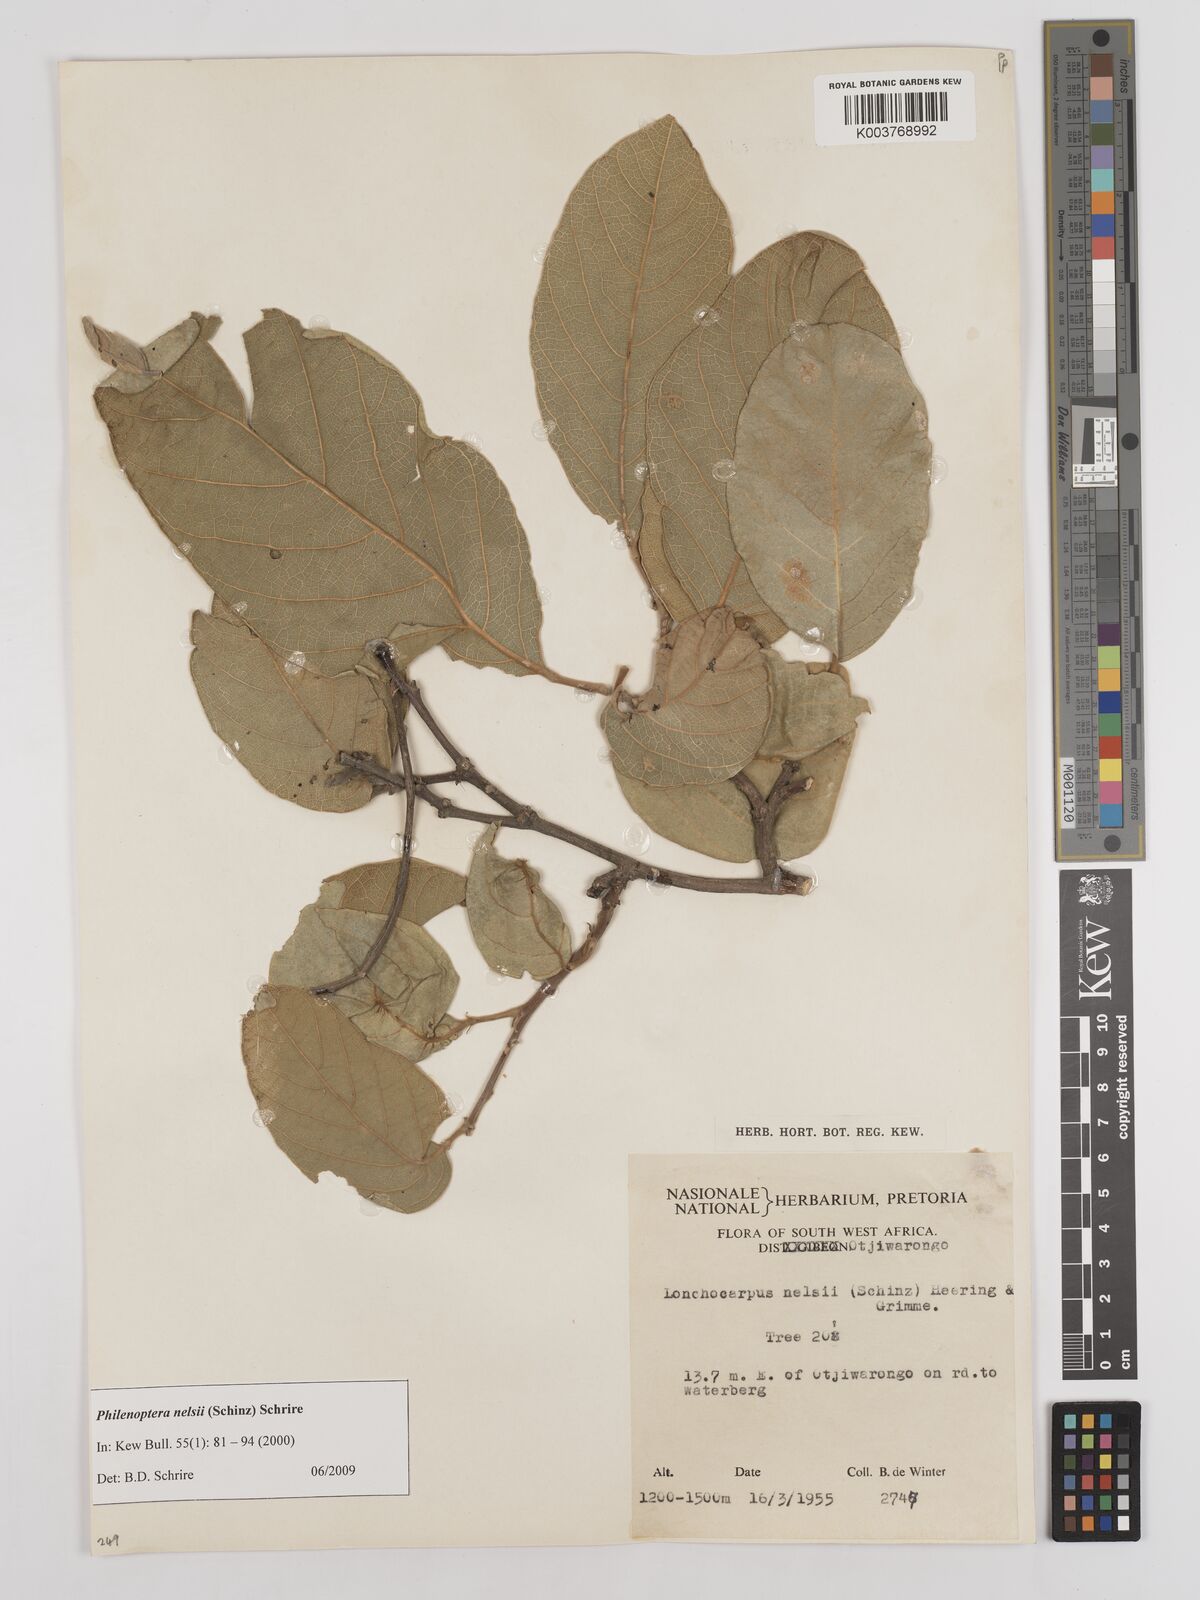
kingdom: Plantae
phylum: Tracheophyta
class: Magnoliopsida
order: Fabales
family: Fabaceae
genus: Philenoptera
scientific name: Philenoptera nelsii
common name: Kalahari apple-leaf
